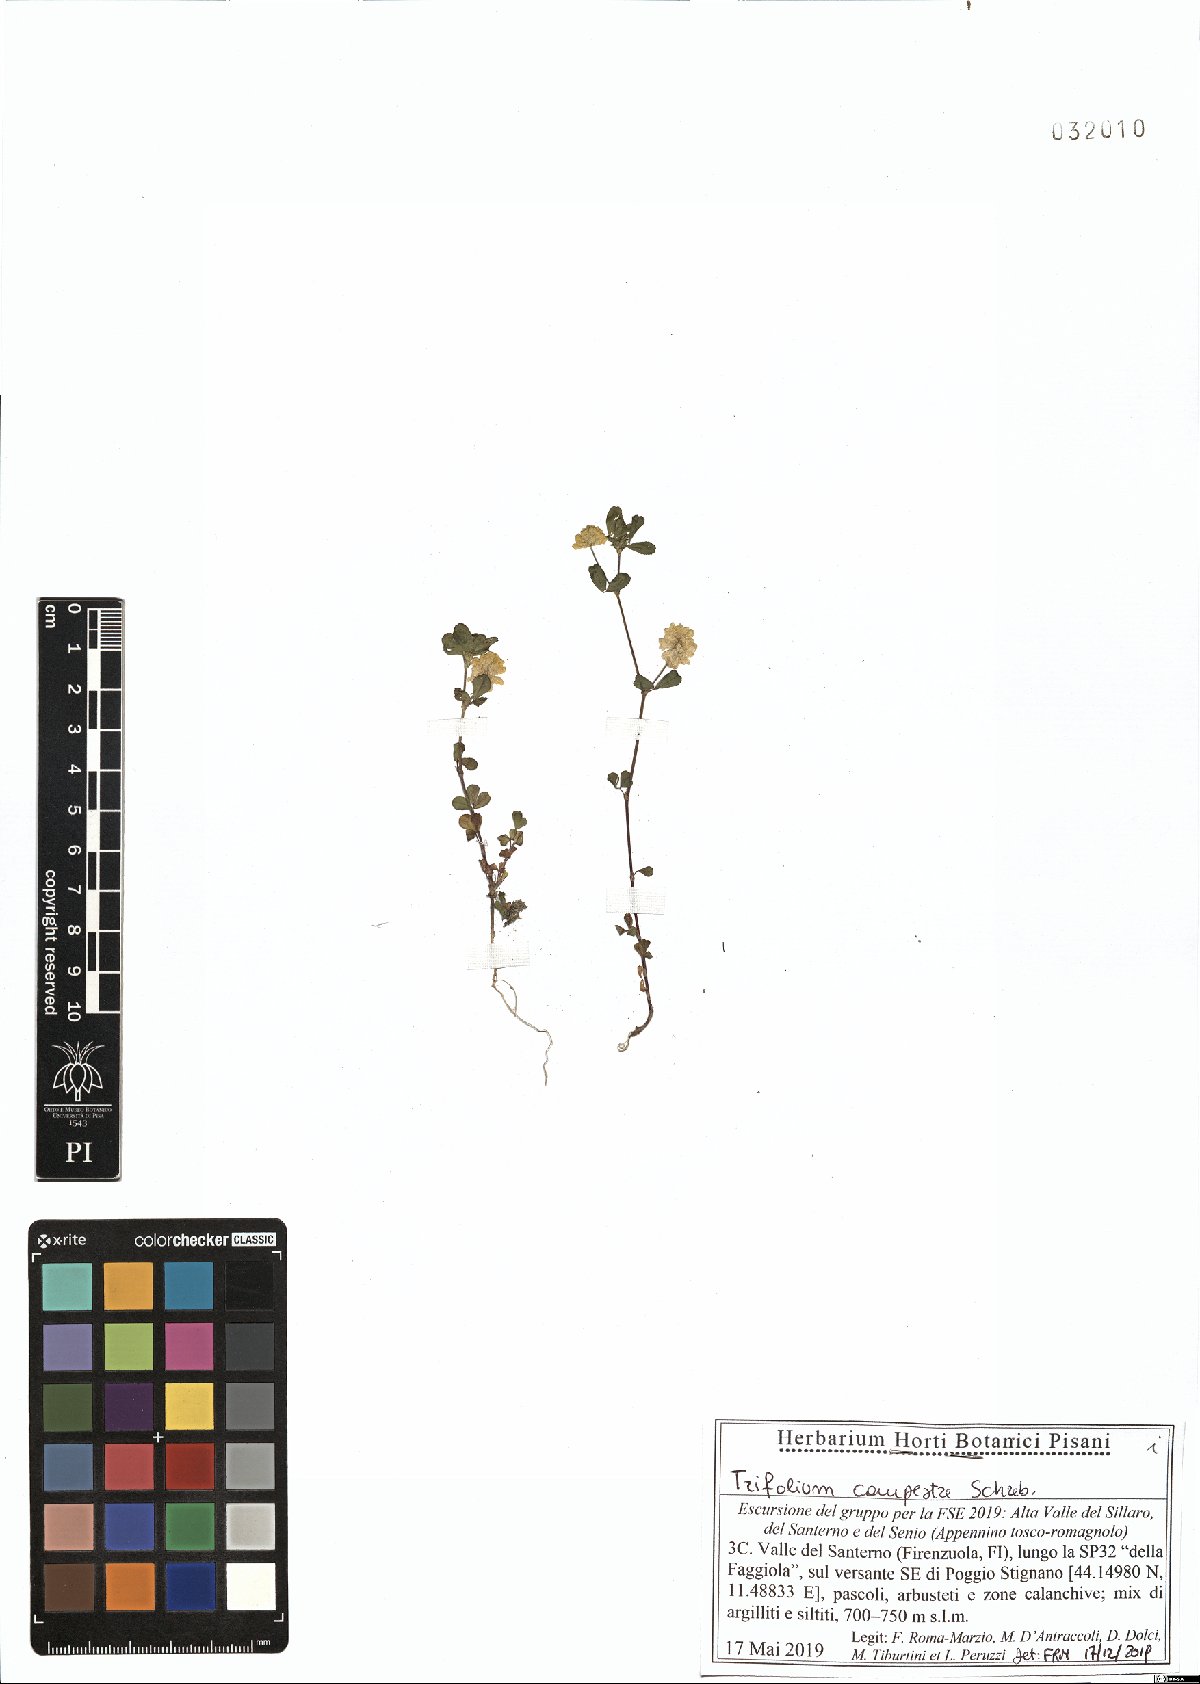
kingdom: Plantae
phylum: Tracheophyta
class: Magnoliopsida
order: Fabales
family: Fabaceae
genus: Trifolium
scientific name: Trifolium campestre
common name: Field clover
